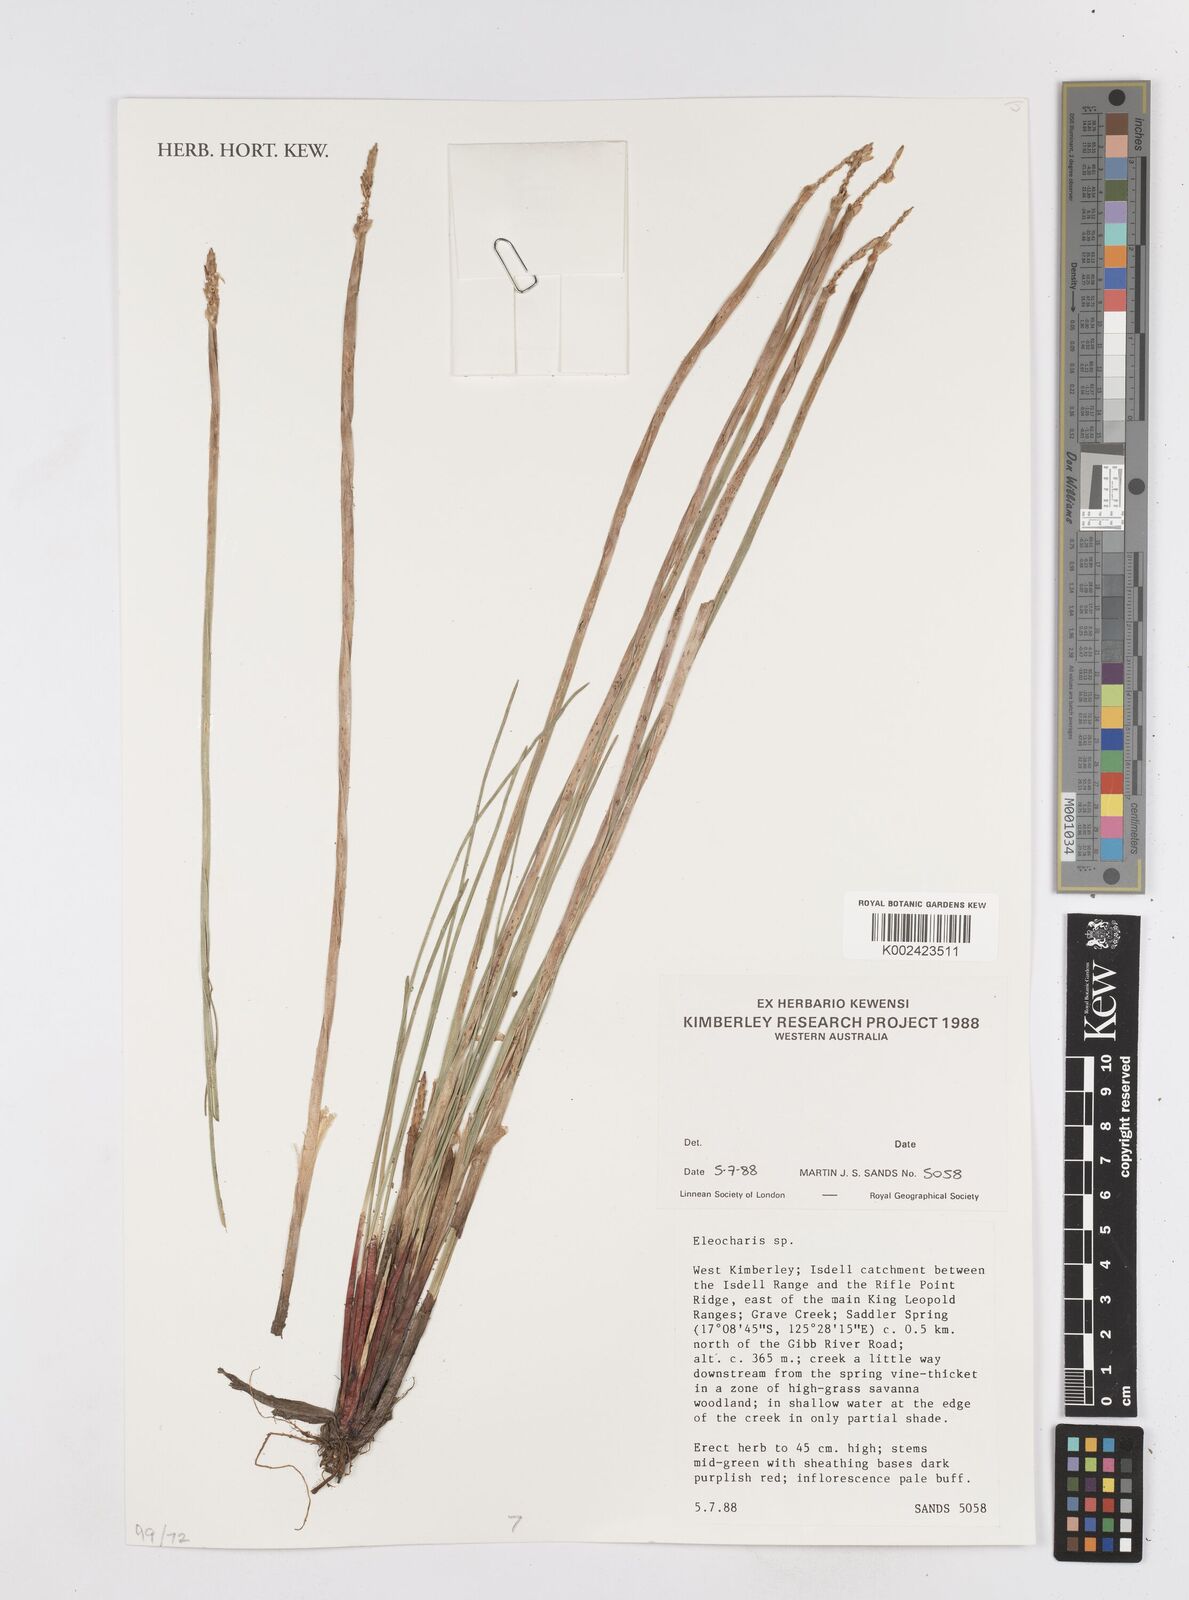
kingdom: Plantae
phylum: Tracheophyta
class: Liliopsida
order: Poales
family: Cyperaceae
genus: Eleocharis
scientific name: Eleocharis
